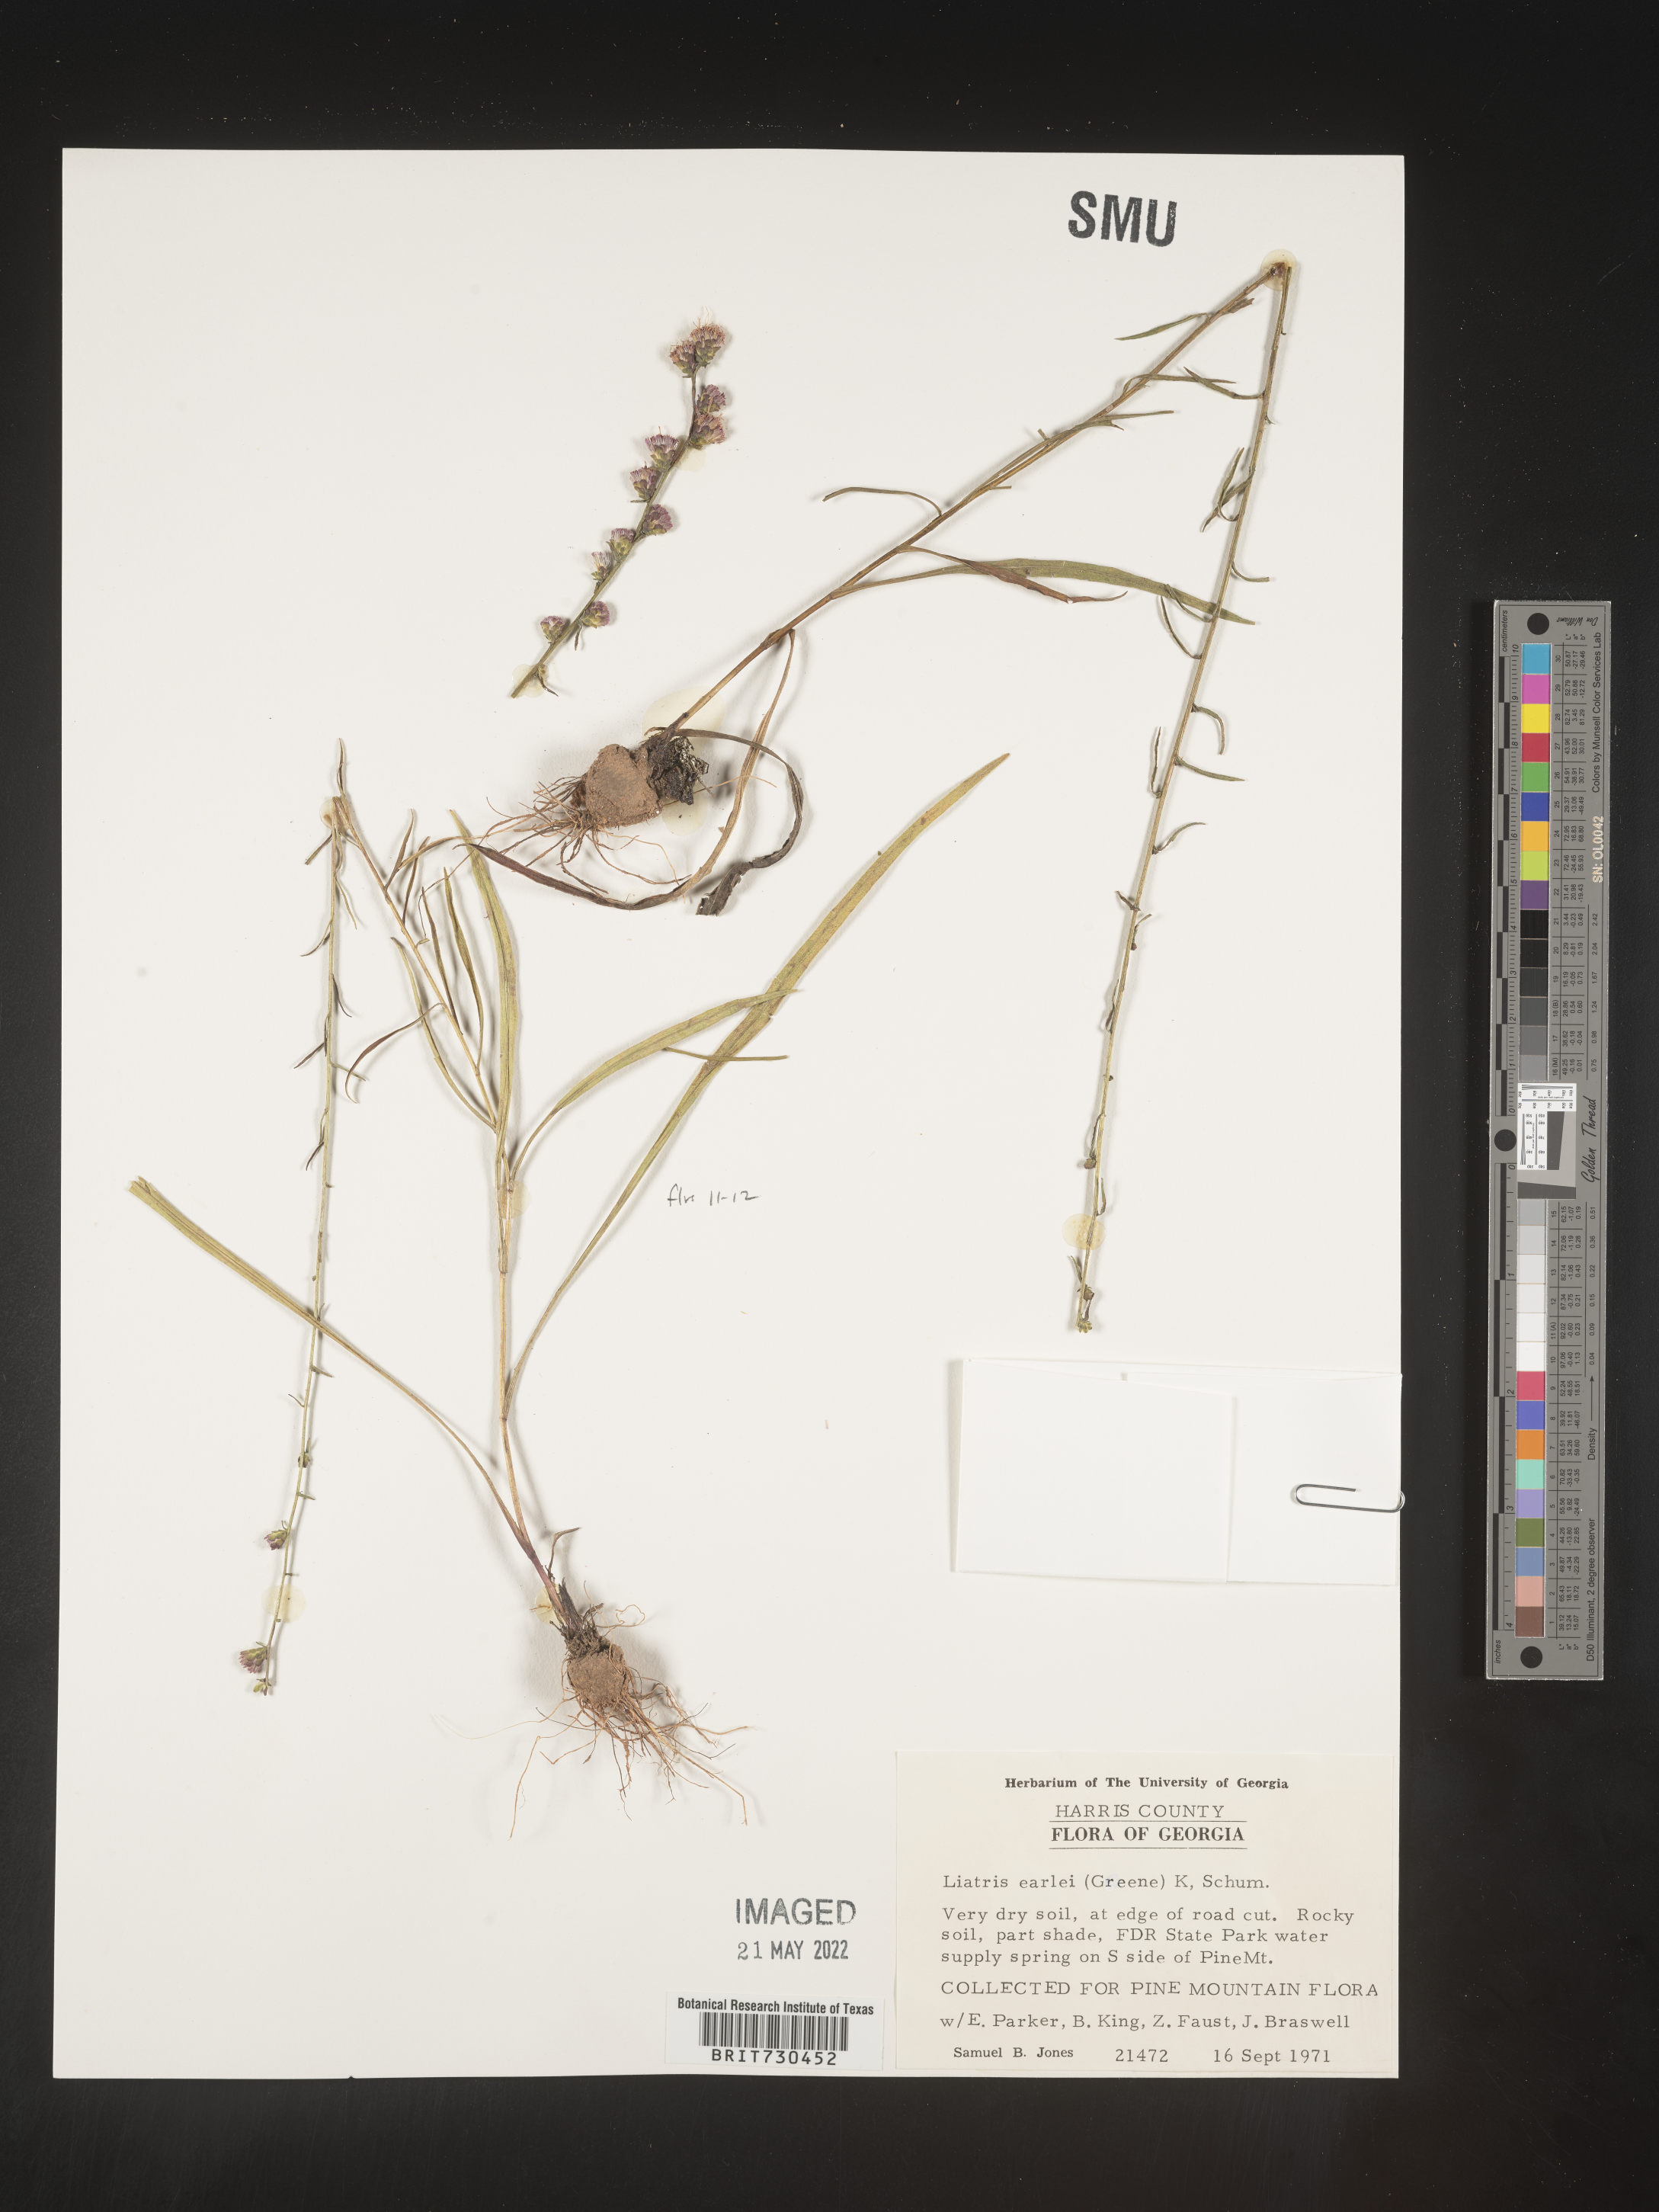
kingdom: Plantae
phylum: Tracheophyta
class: Magnoliopsida
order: Asterales
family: Asteraceae
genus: Liatris
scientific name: Liatris elegantula
